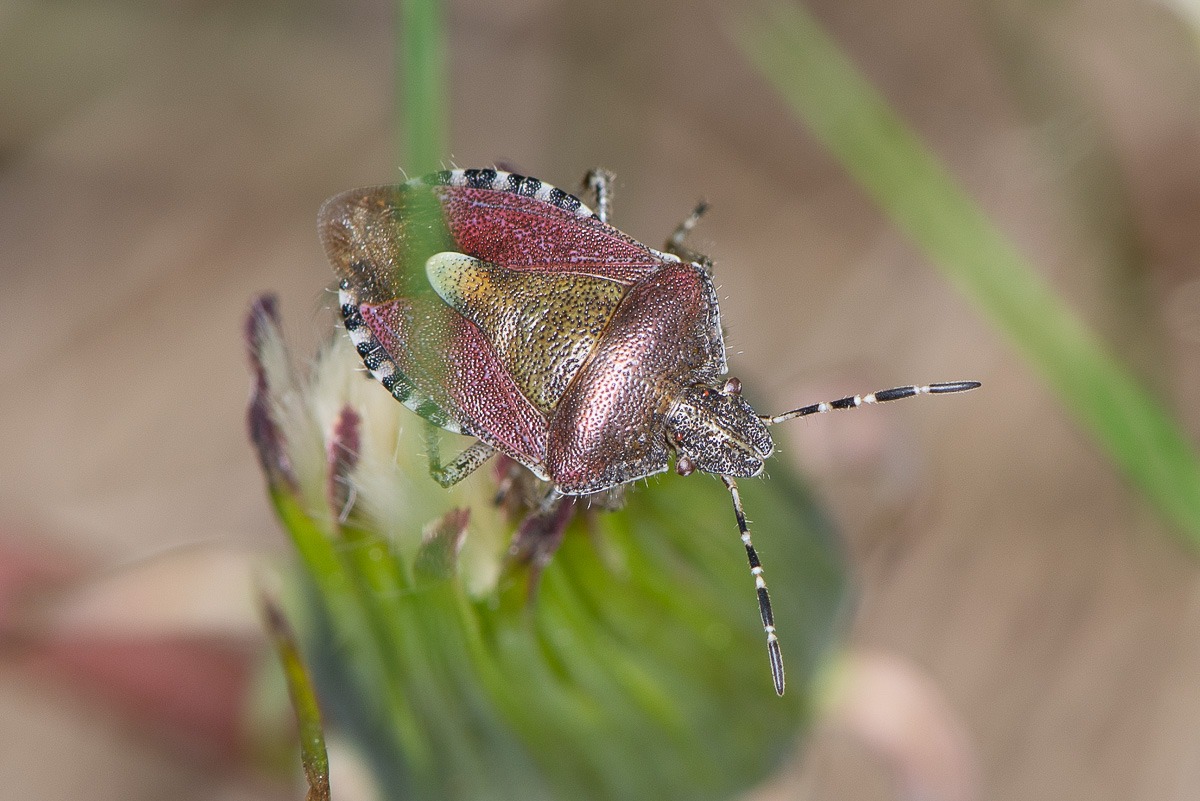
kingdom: Animalia
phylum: Arthropoda
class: Insecta
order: Hemiptera
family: Pentatomidae
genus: Dolycoris
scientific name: Dolycoris baccarum
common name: Almindelig bærtæge
